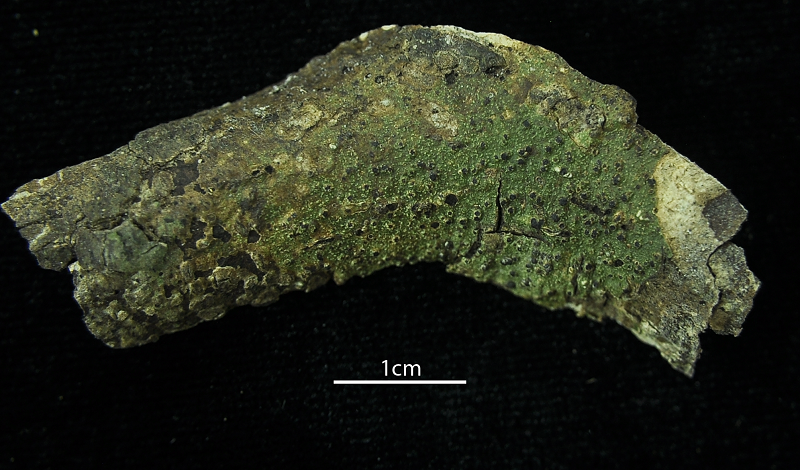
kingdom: Fungi
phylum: Ascomycota
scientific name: Ascomycota
